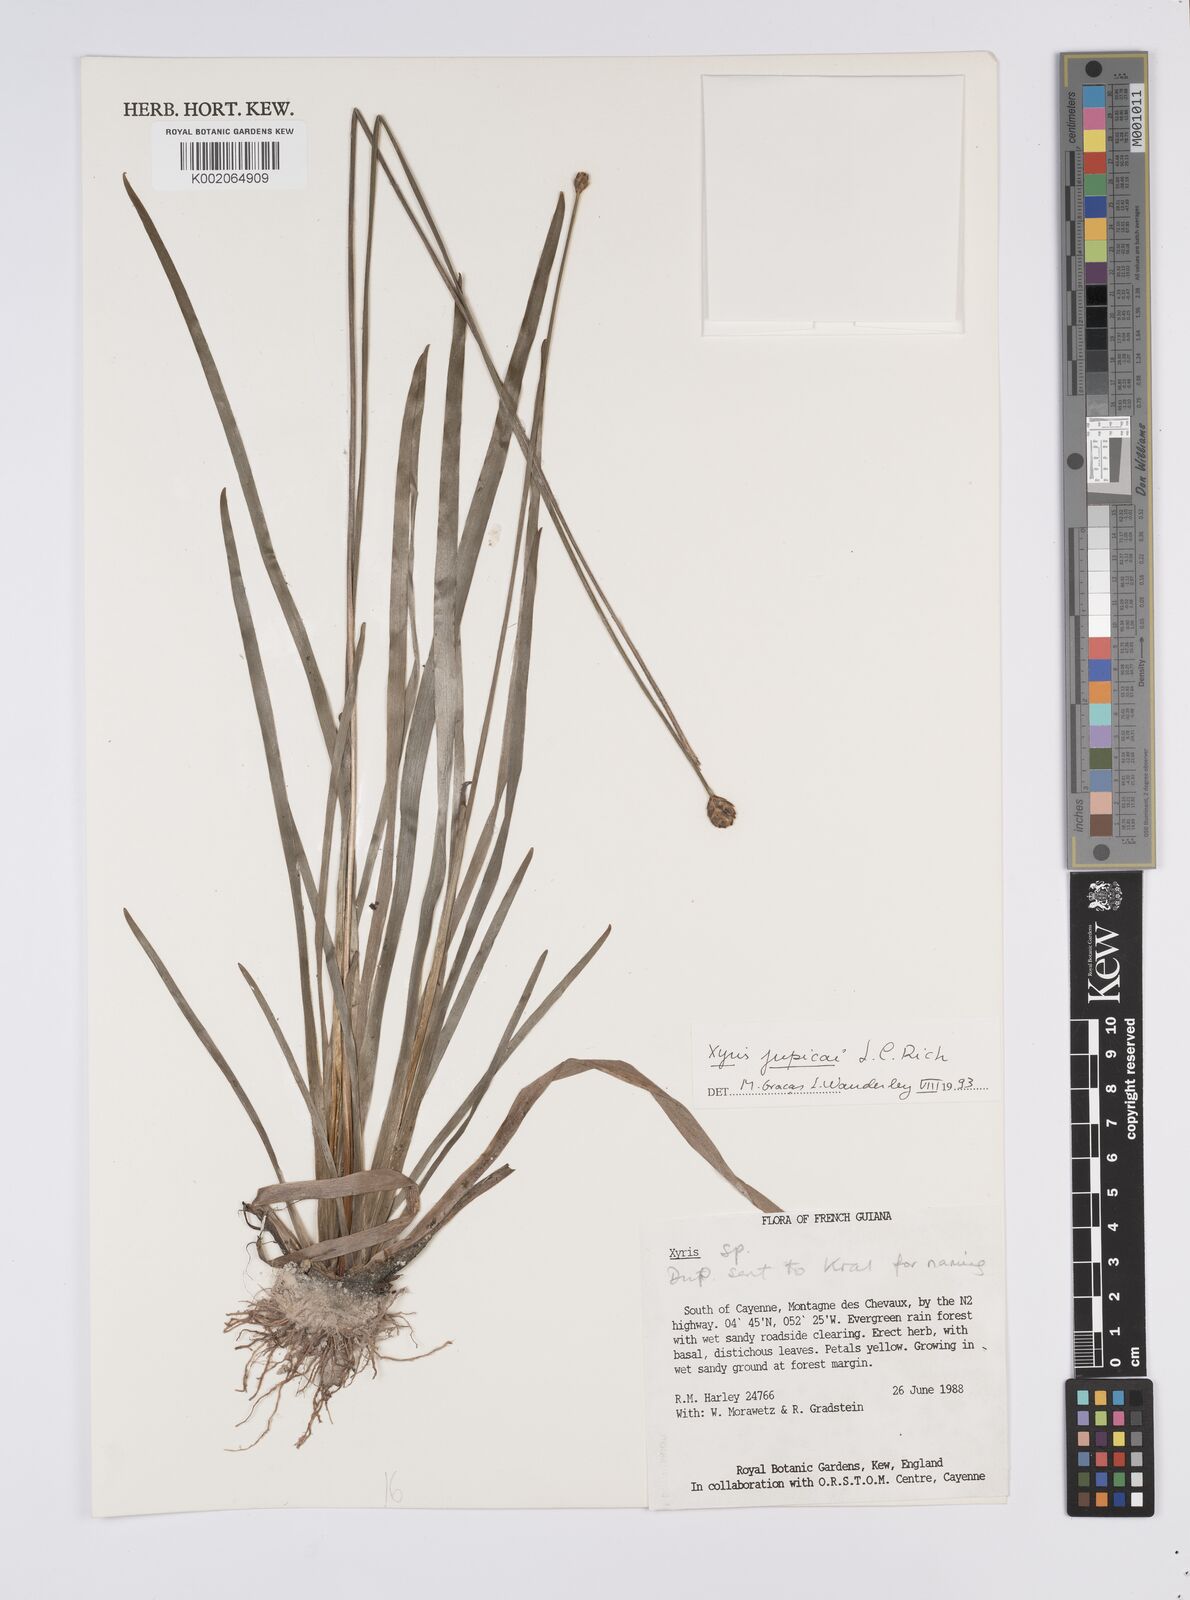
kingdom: Plantae
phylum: Tracheophyta
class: Liliopsida
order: Poales
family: Xyridaceae
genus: Xyris
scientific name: Xyris jupicai
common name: Richard's yelloweyed grass
